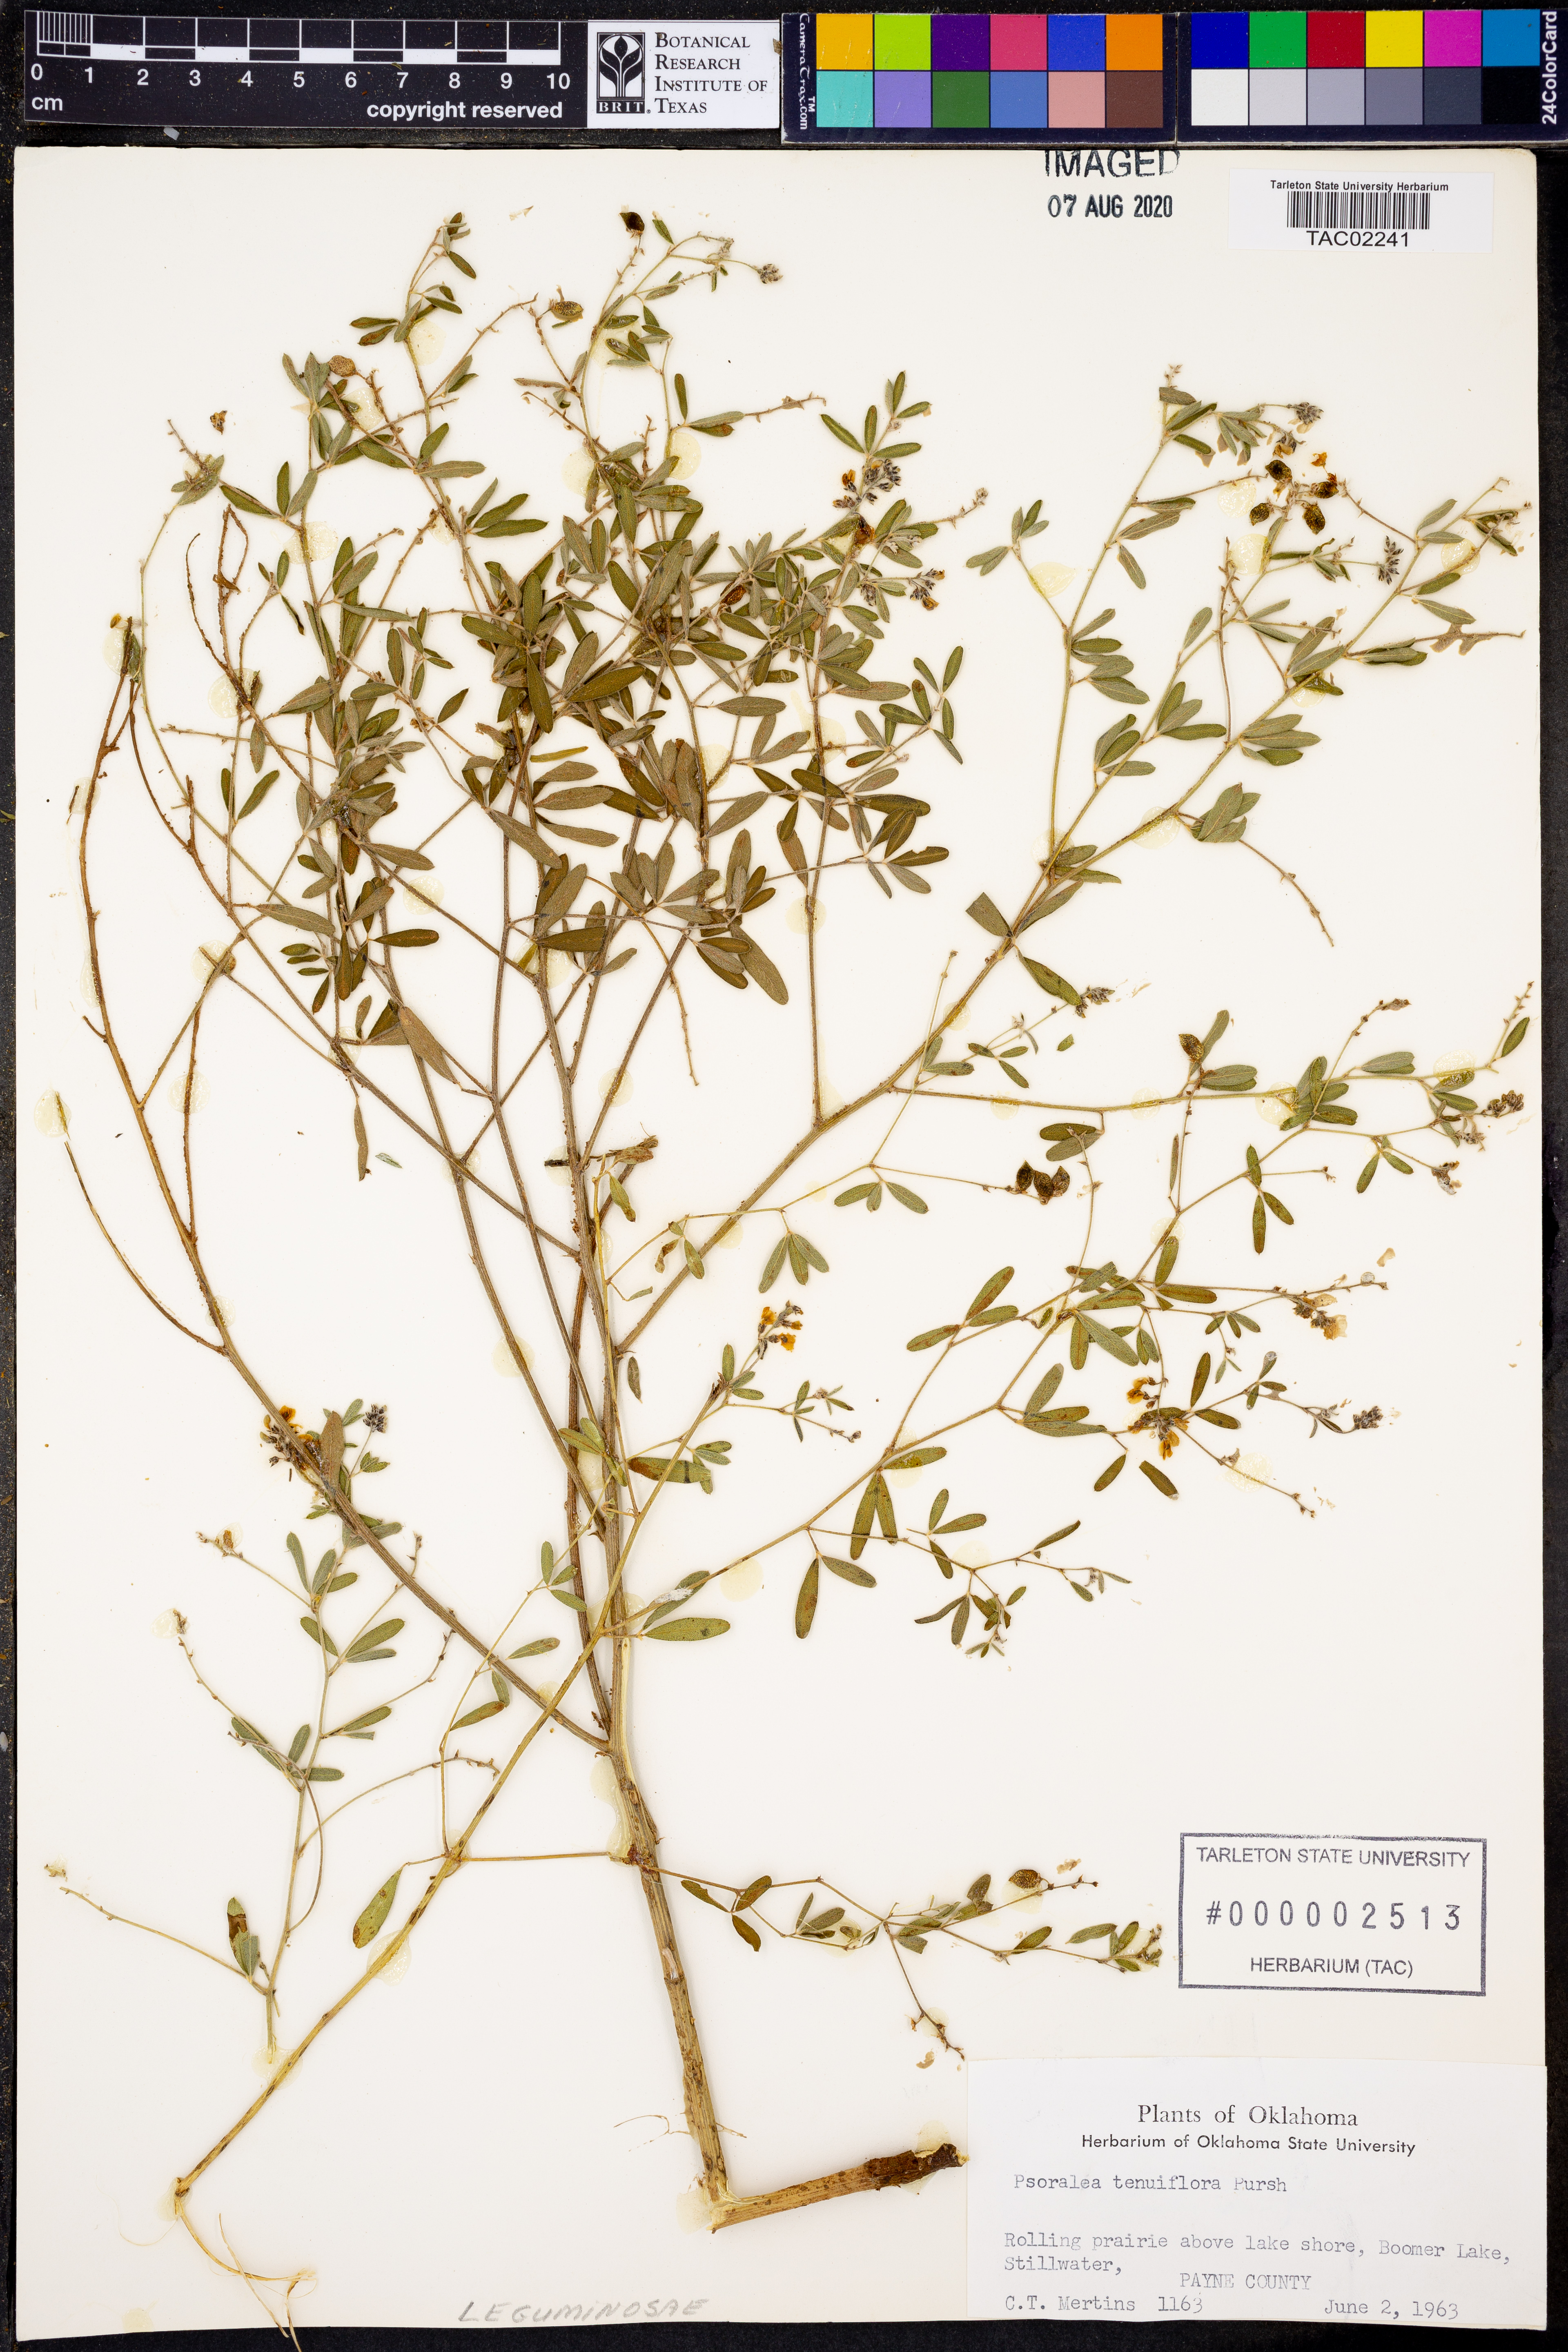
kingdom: Plantae
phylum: Tracheophyta
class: Magnoliopsida
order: Fabales
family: Fabaceae
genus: Pediomelum
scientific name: Pediomelum tenuiflorum
